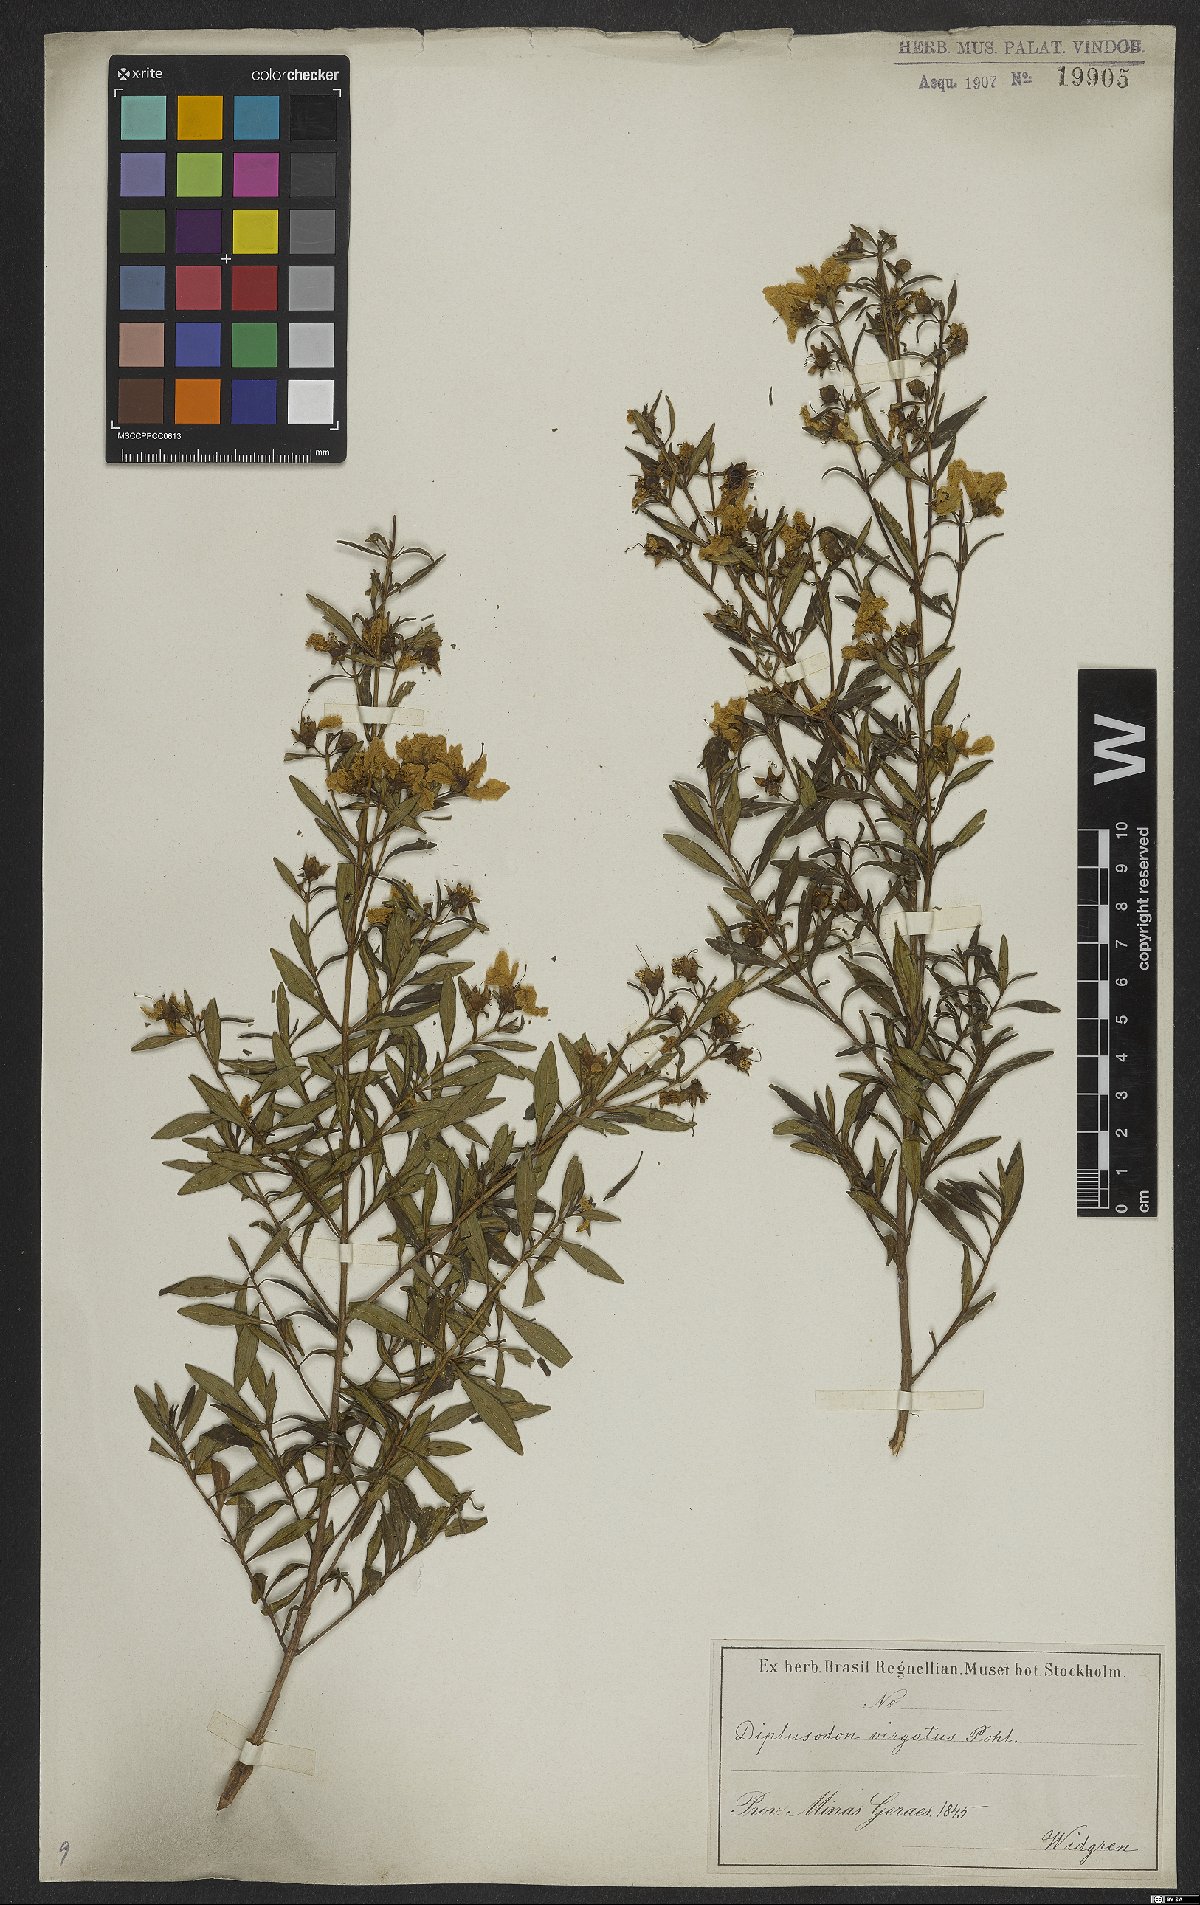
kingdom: Plantae
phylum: Tracheophyta
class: Magnoliopsida
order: Myrtales
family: Lythraceae
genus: Diplusodon
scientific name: Diplusodon virgatus
